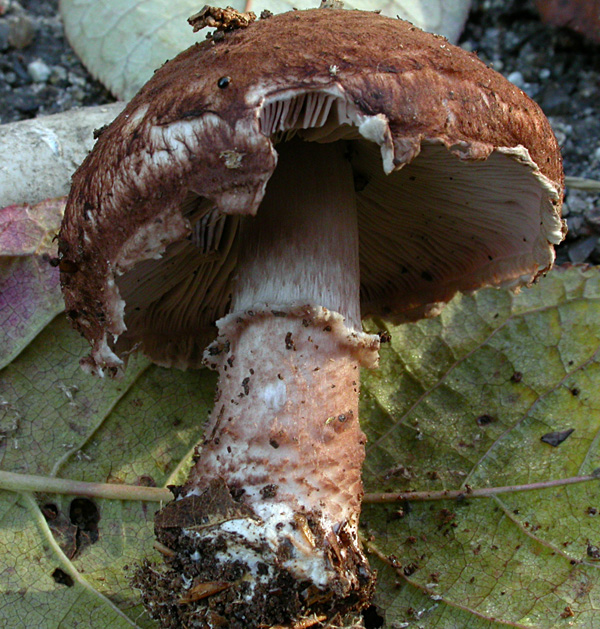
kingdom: Fungi
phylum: Basidiomycota
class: Agaricomycetes
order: Agaricales
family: Agaricaceae
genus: Agaricus
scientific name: Agaricus lanipes
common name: uldstokket champignon
